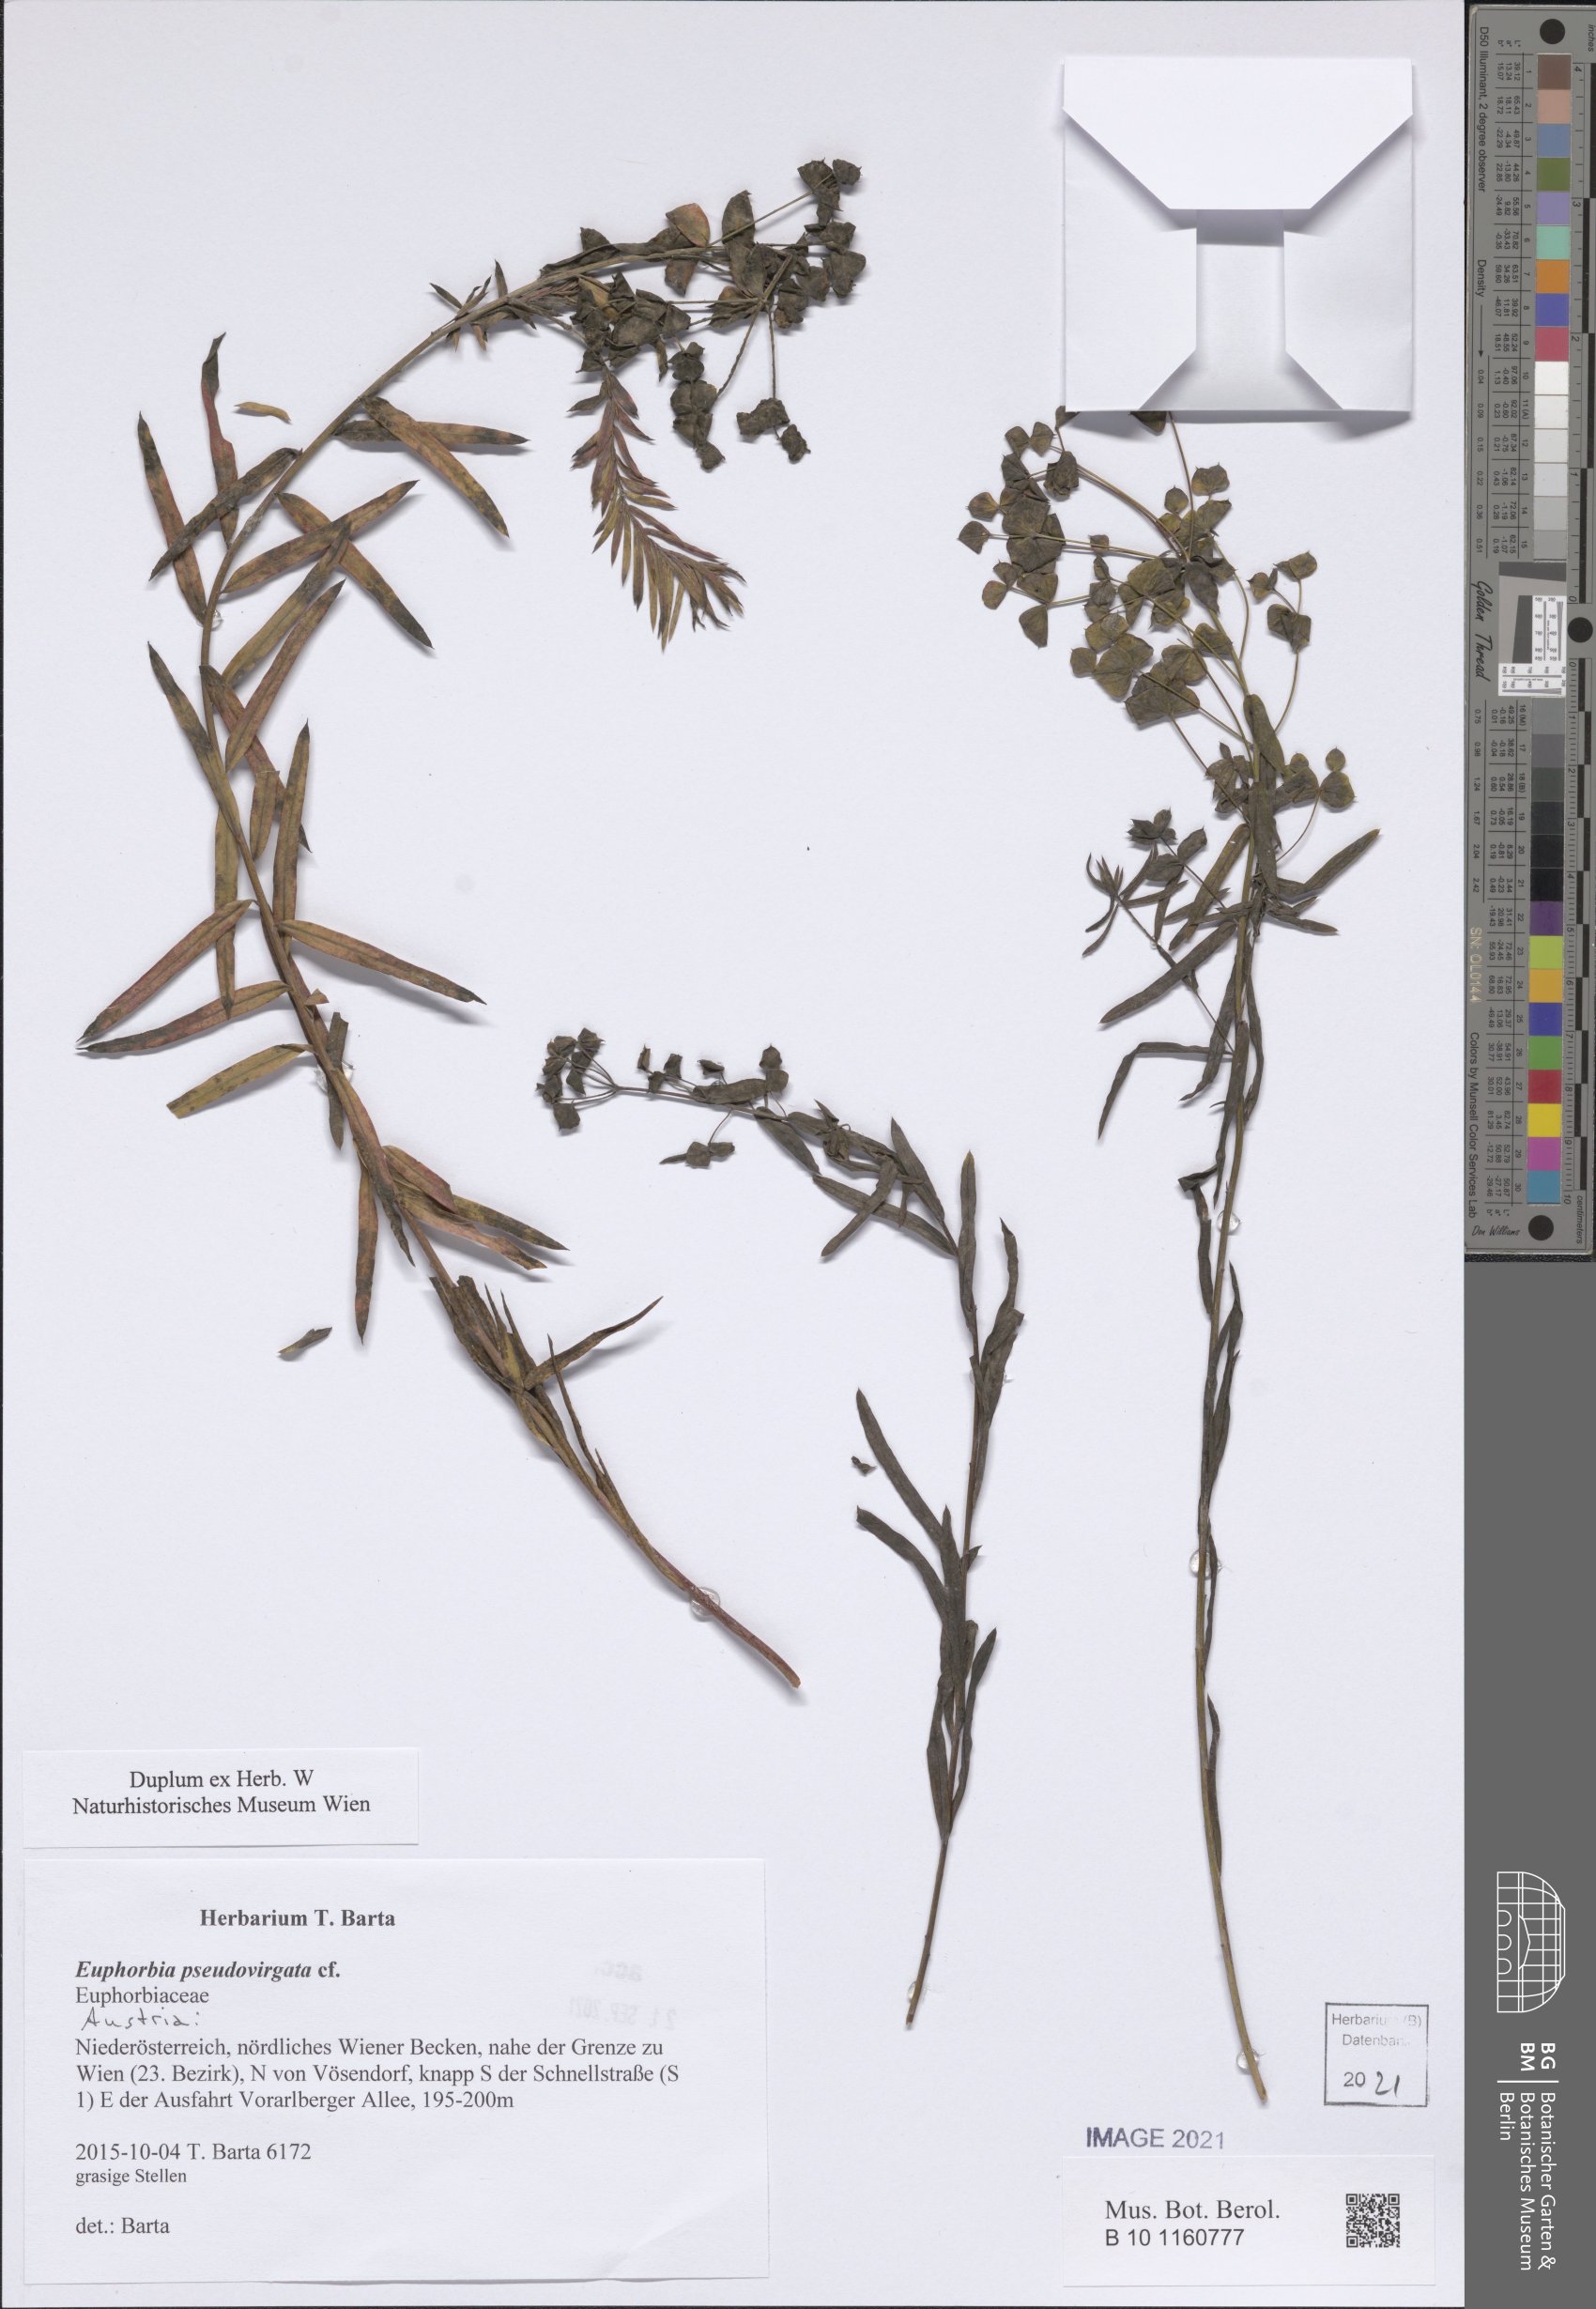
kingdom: Plantae
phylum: Tracheophyta
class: Magnoliopsida
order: Malpighiales
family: Euphorbiaceae
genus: Euphorbia
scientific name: Euphorbia virgata
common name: Leafy spurge
